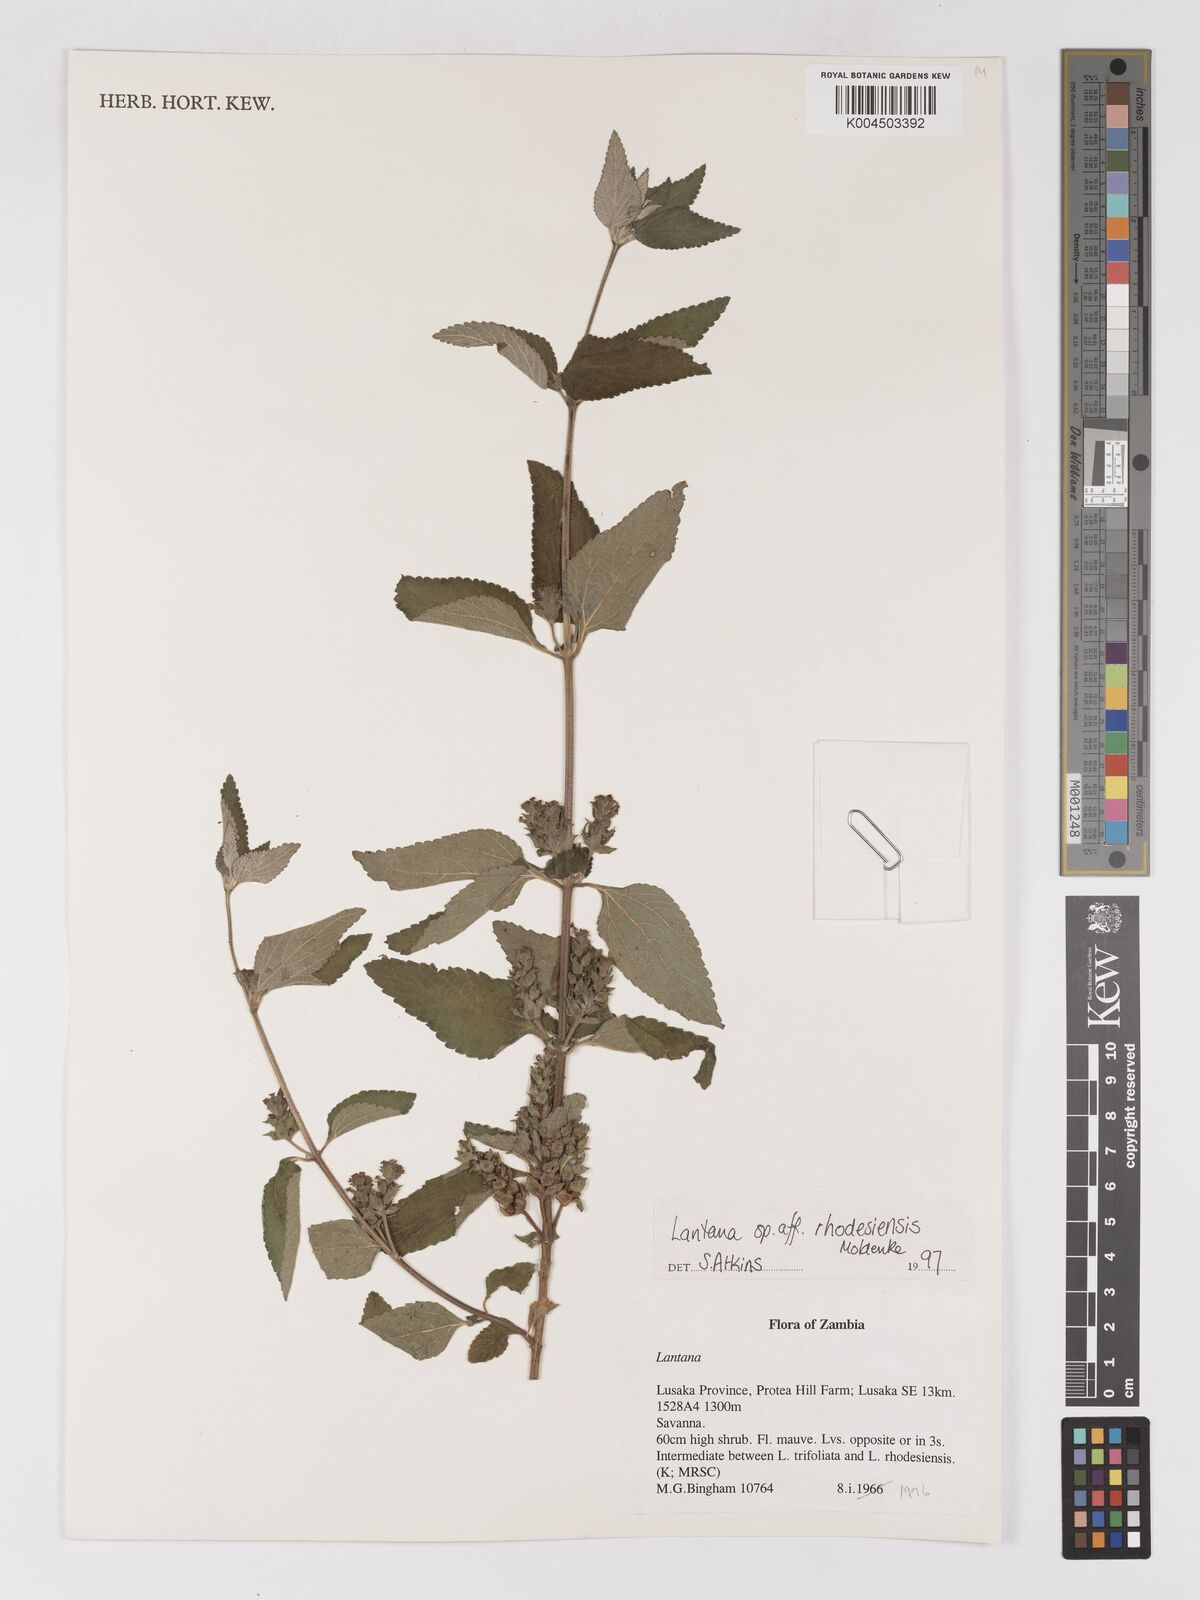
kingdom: Plantae
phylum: Tracheophyta
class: Magnoliopsida
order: Lamiales
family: Verbenaceae
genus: Lantana
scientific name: Lantana ukambensis
